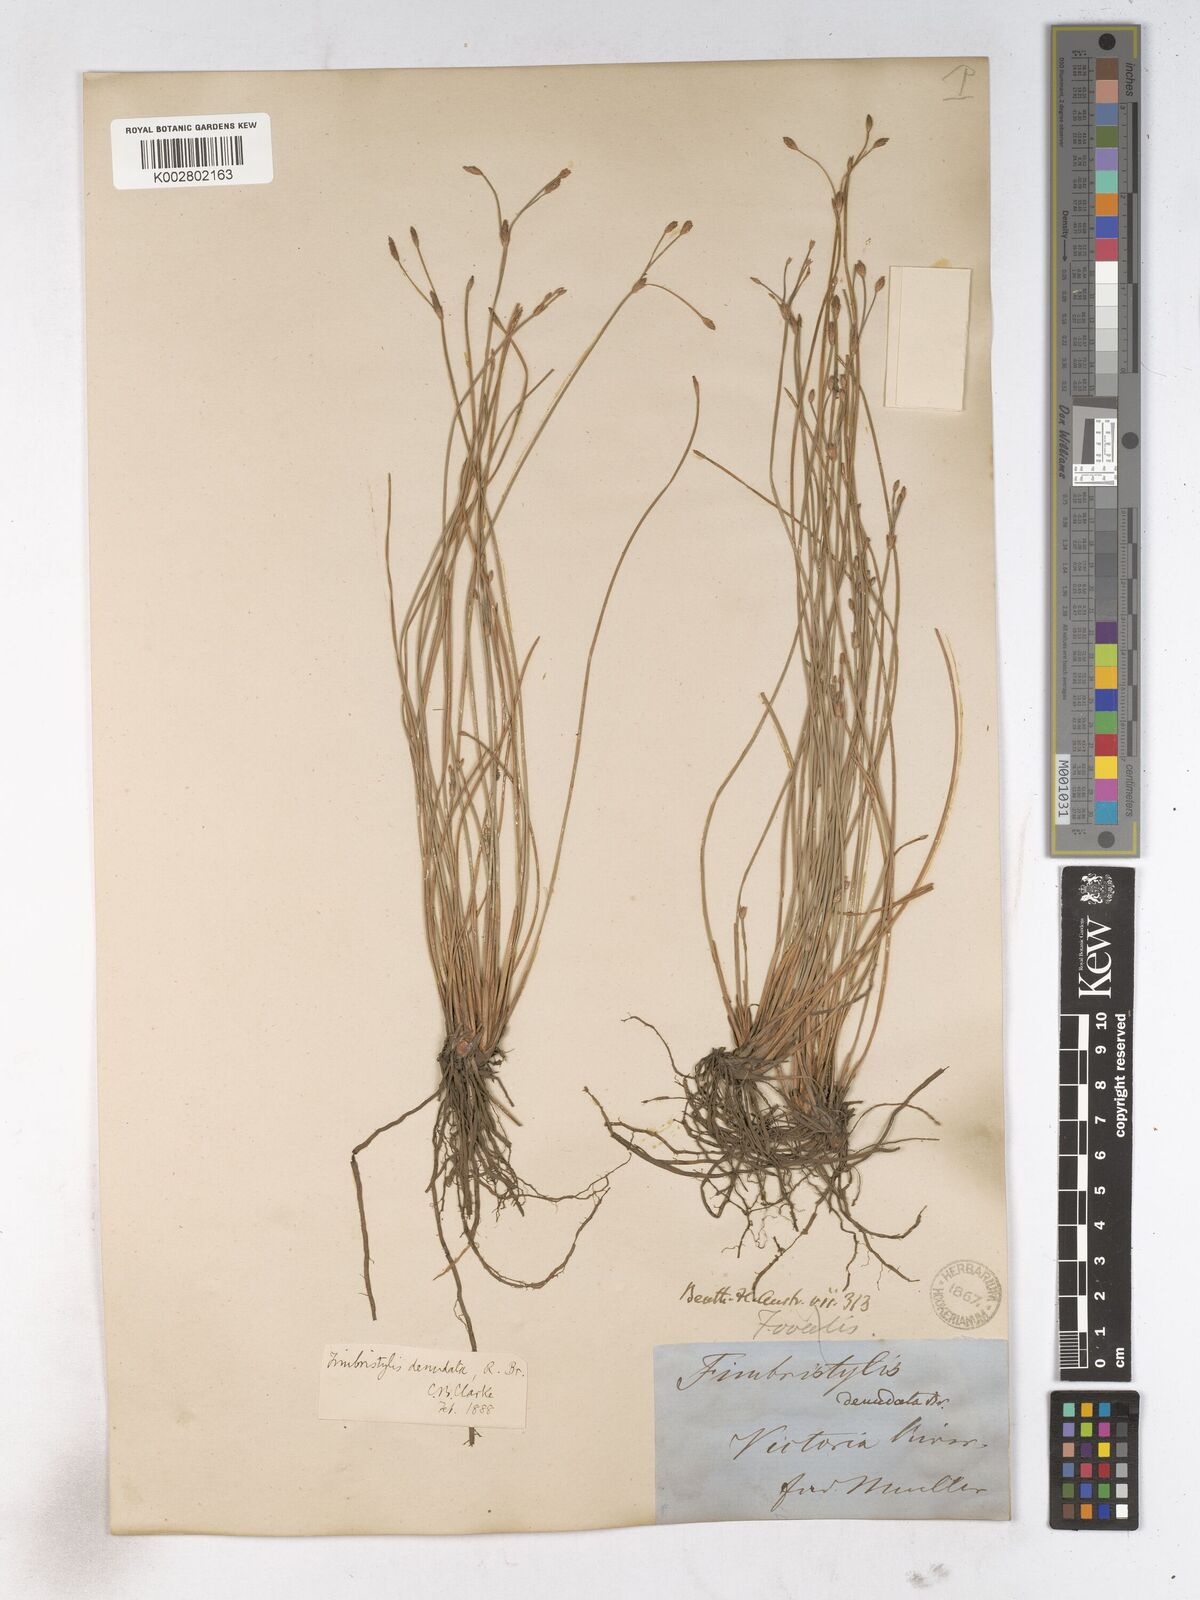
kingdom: Plantae
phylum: Tracheophyta
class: Liliopsida
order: Poales
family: Cyperaceae
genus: Fimbristylis
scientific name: Fimbristylis denudata
